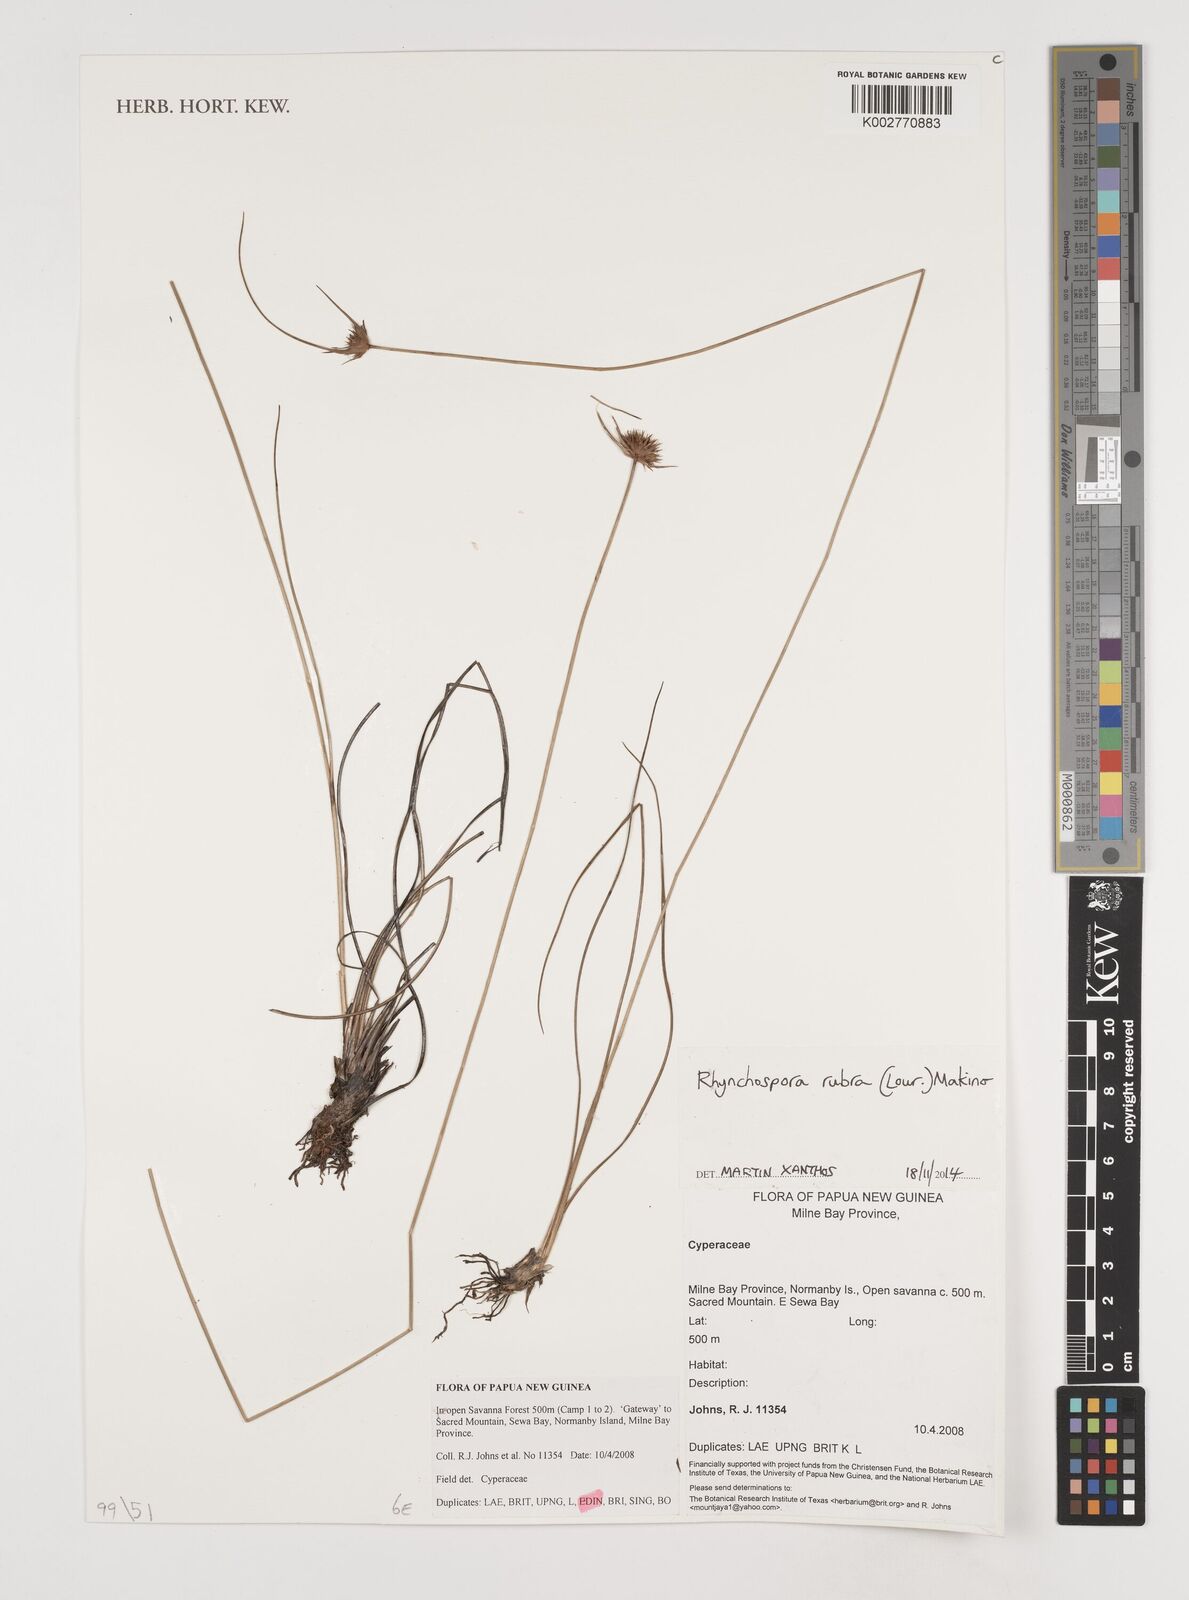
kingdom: Plantae
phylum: Tracheophyta
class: Liliopsida
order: Poales
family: Cyperaceae
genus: Rhynchospora
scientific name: Rhynchospora rubra
